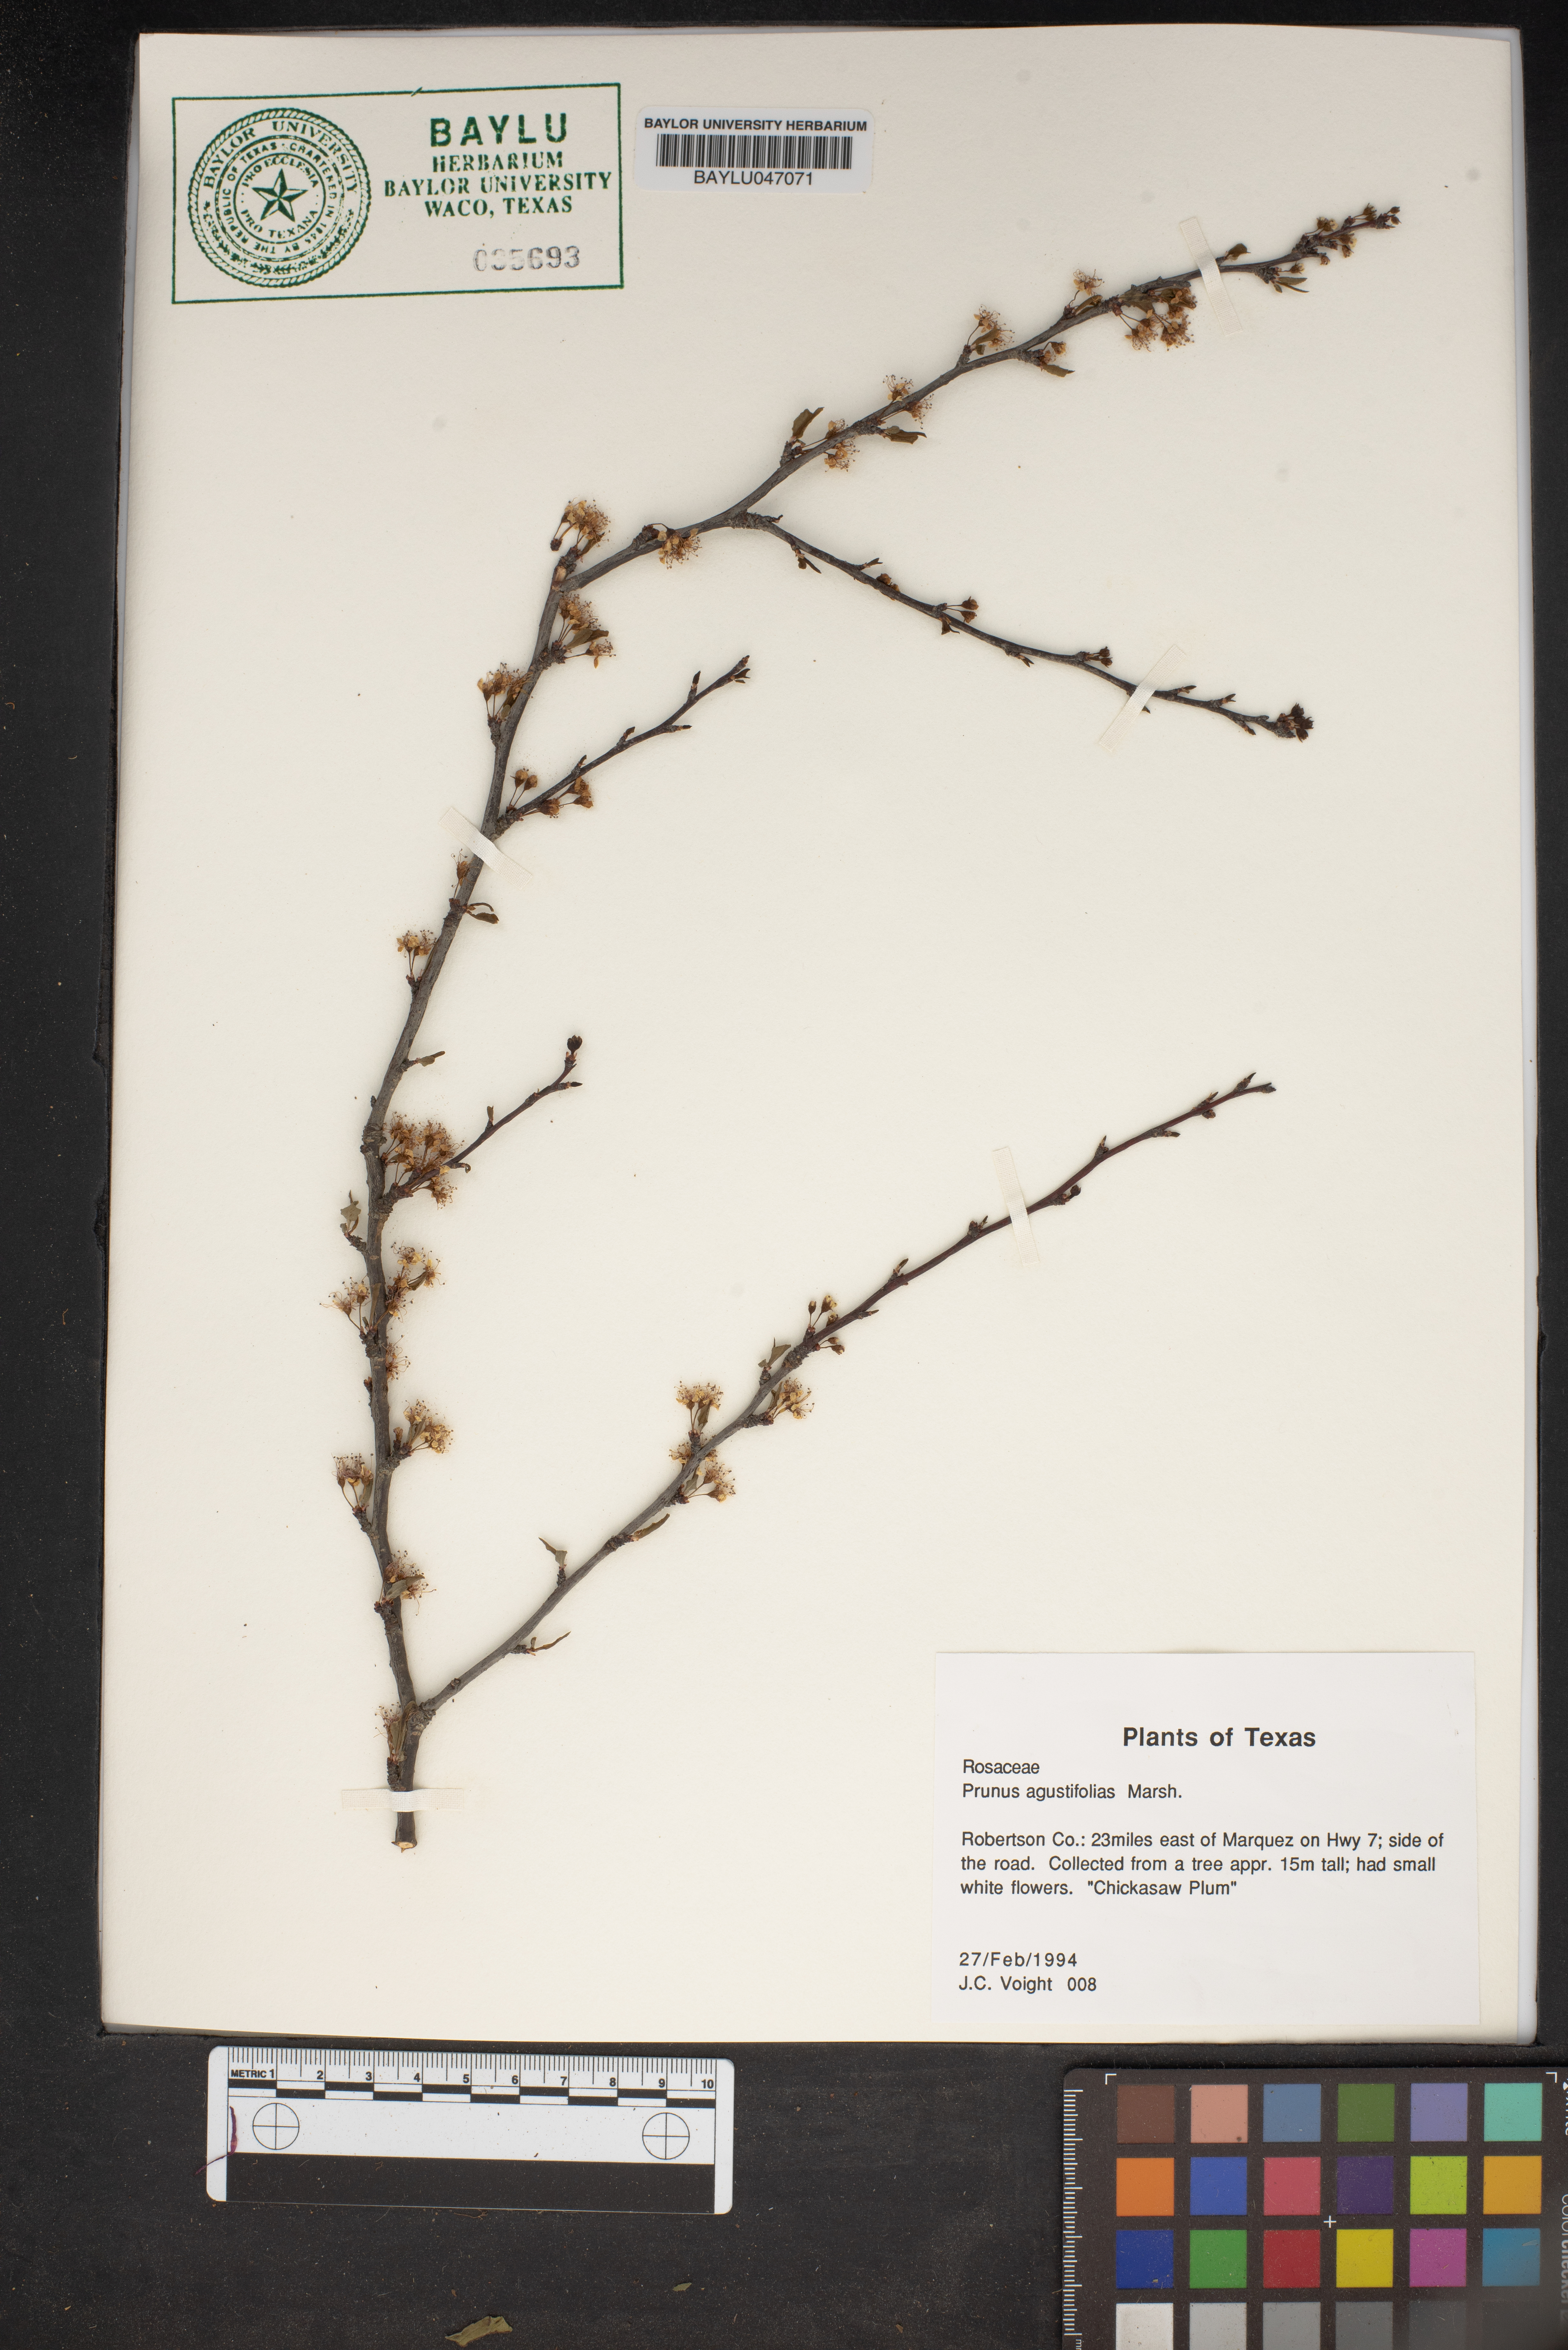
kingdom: Plantae
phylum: Tracheophyta
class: Magnoliopsida
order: Rosales
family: Rosaceae
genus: Prunus
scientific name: Prunus angustifolia
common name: Cherokee plum
